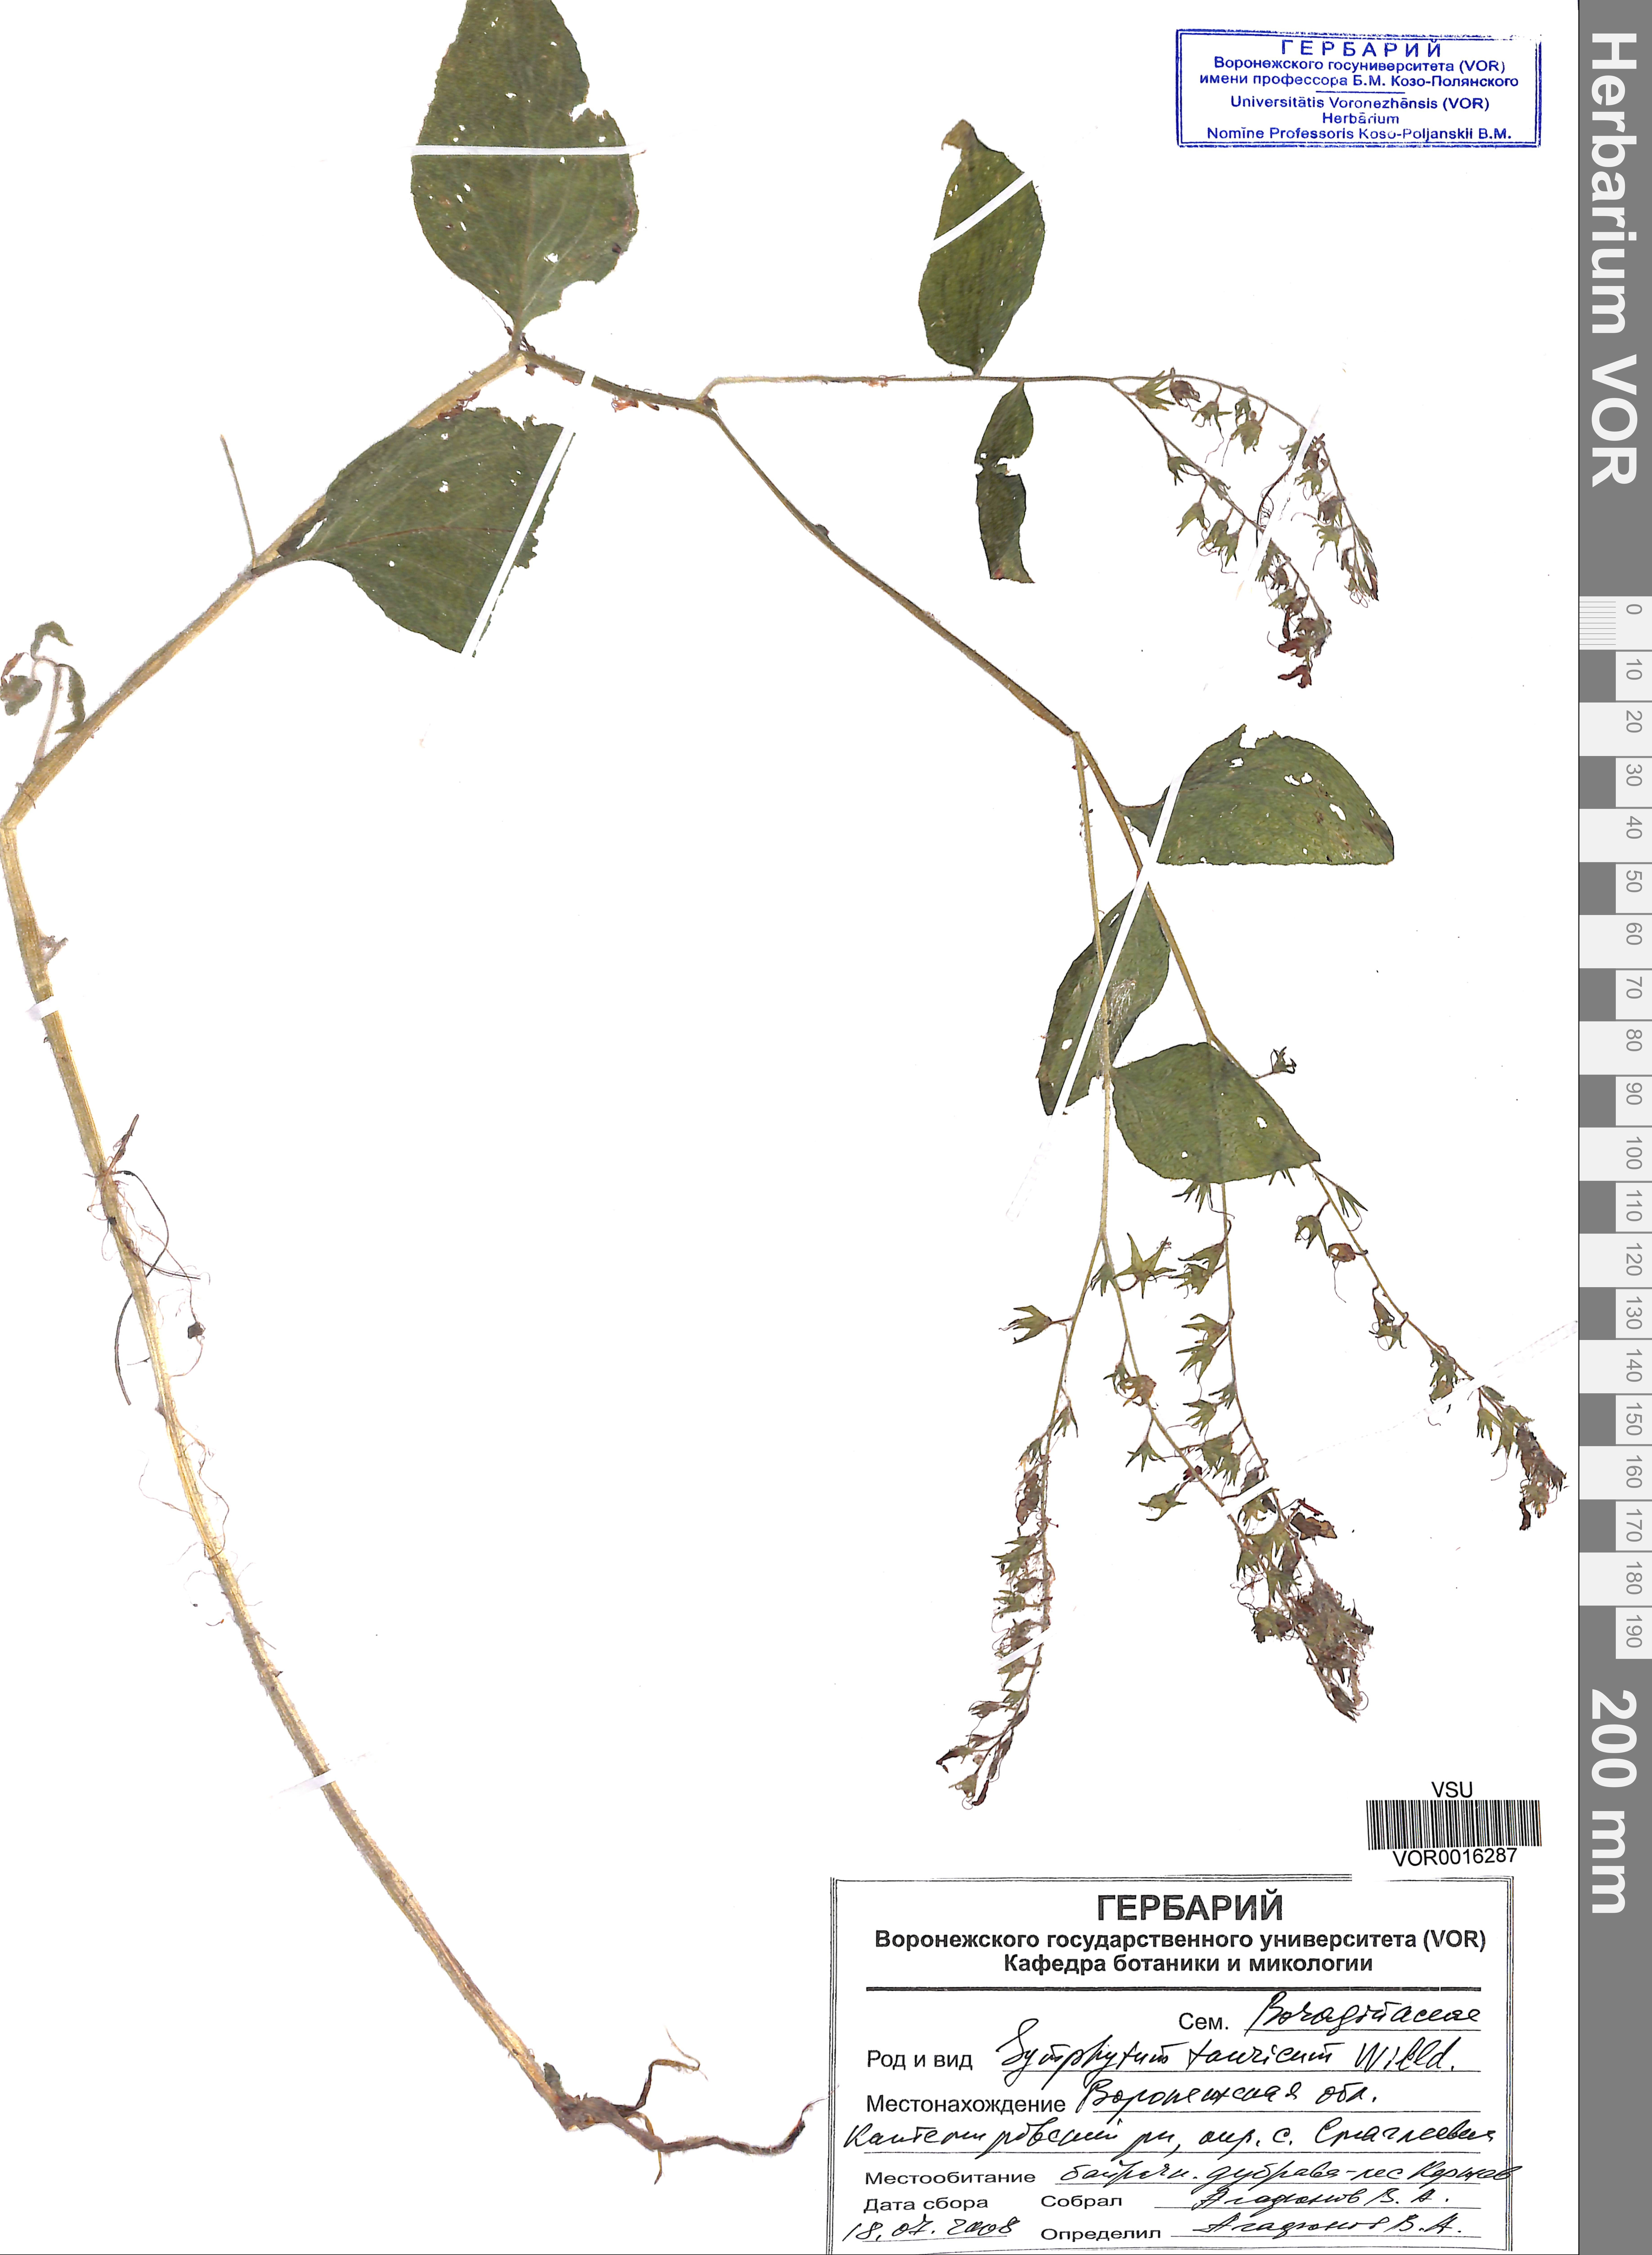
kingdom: Plantae
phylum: Tracheophyta
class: Magnoliopsida
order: Boraginales
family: Boraginaceae
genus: Symphytum
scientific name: Symphytum tauricum
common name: Crimean comfrey
